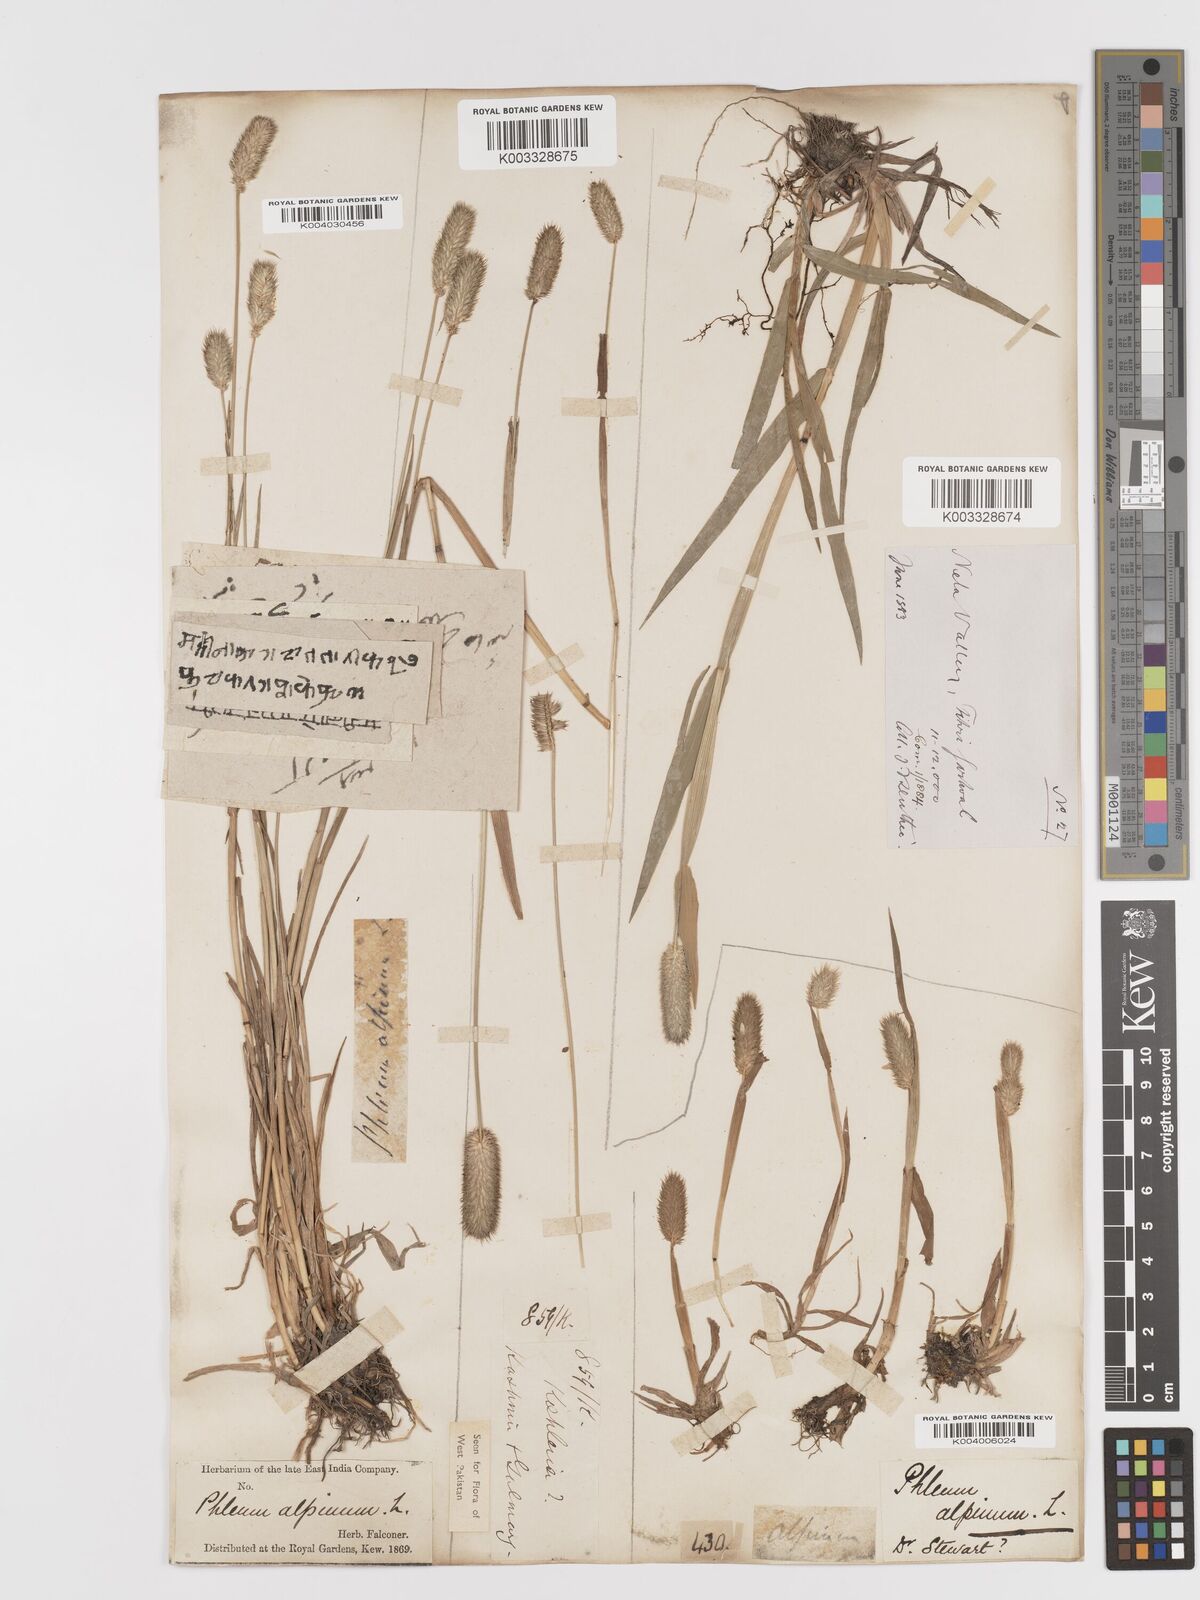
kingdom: Plantae
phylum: Tracheophyta
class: Liliopsida
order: Poales
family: Poaceae
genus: Phleum
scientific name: Phleum alpinum
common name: Alpine cat's-tail
